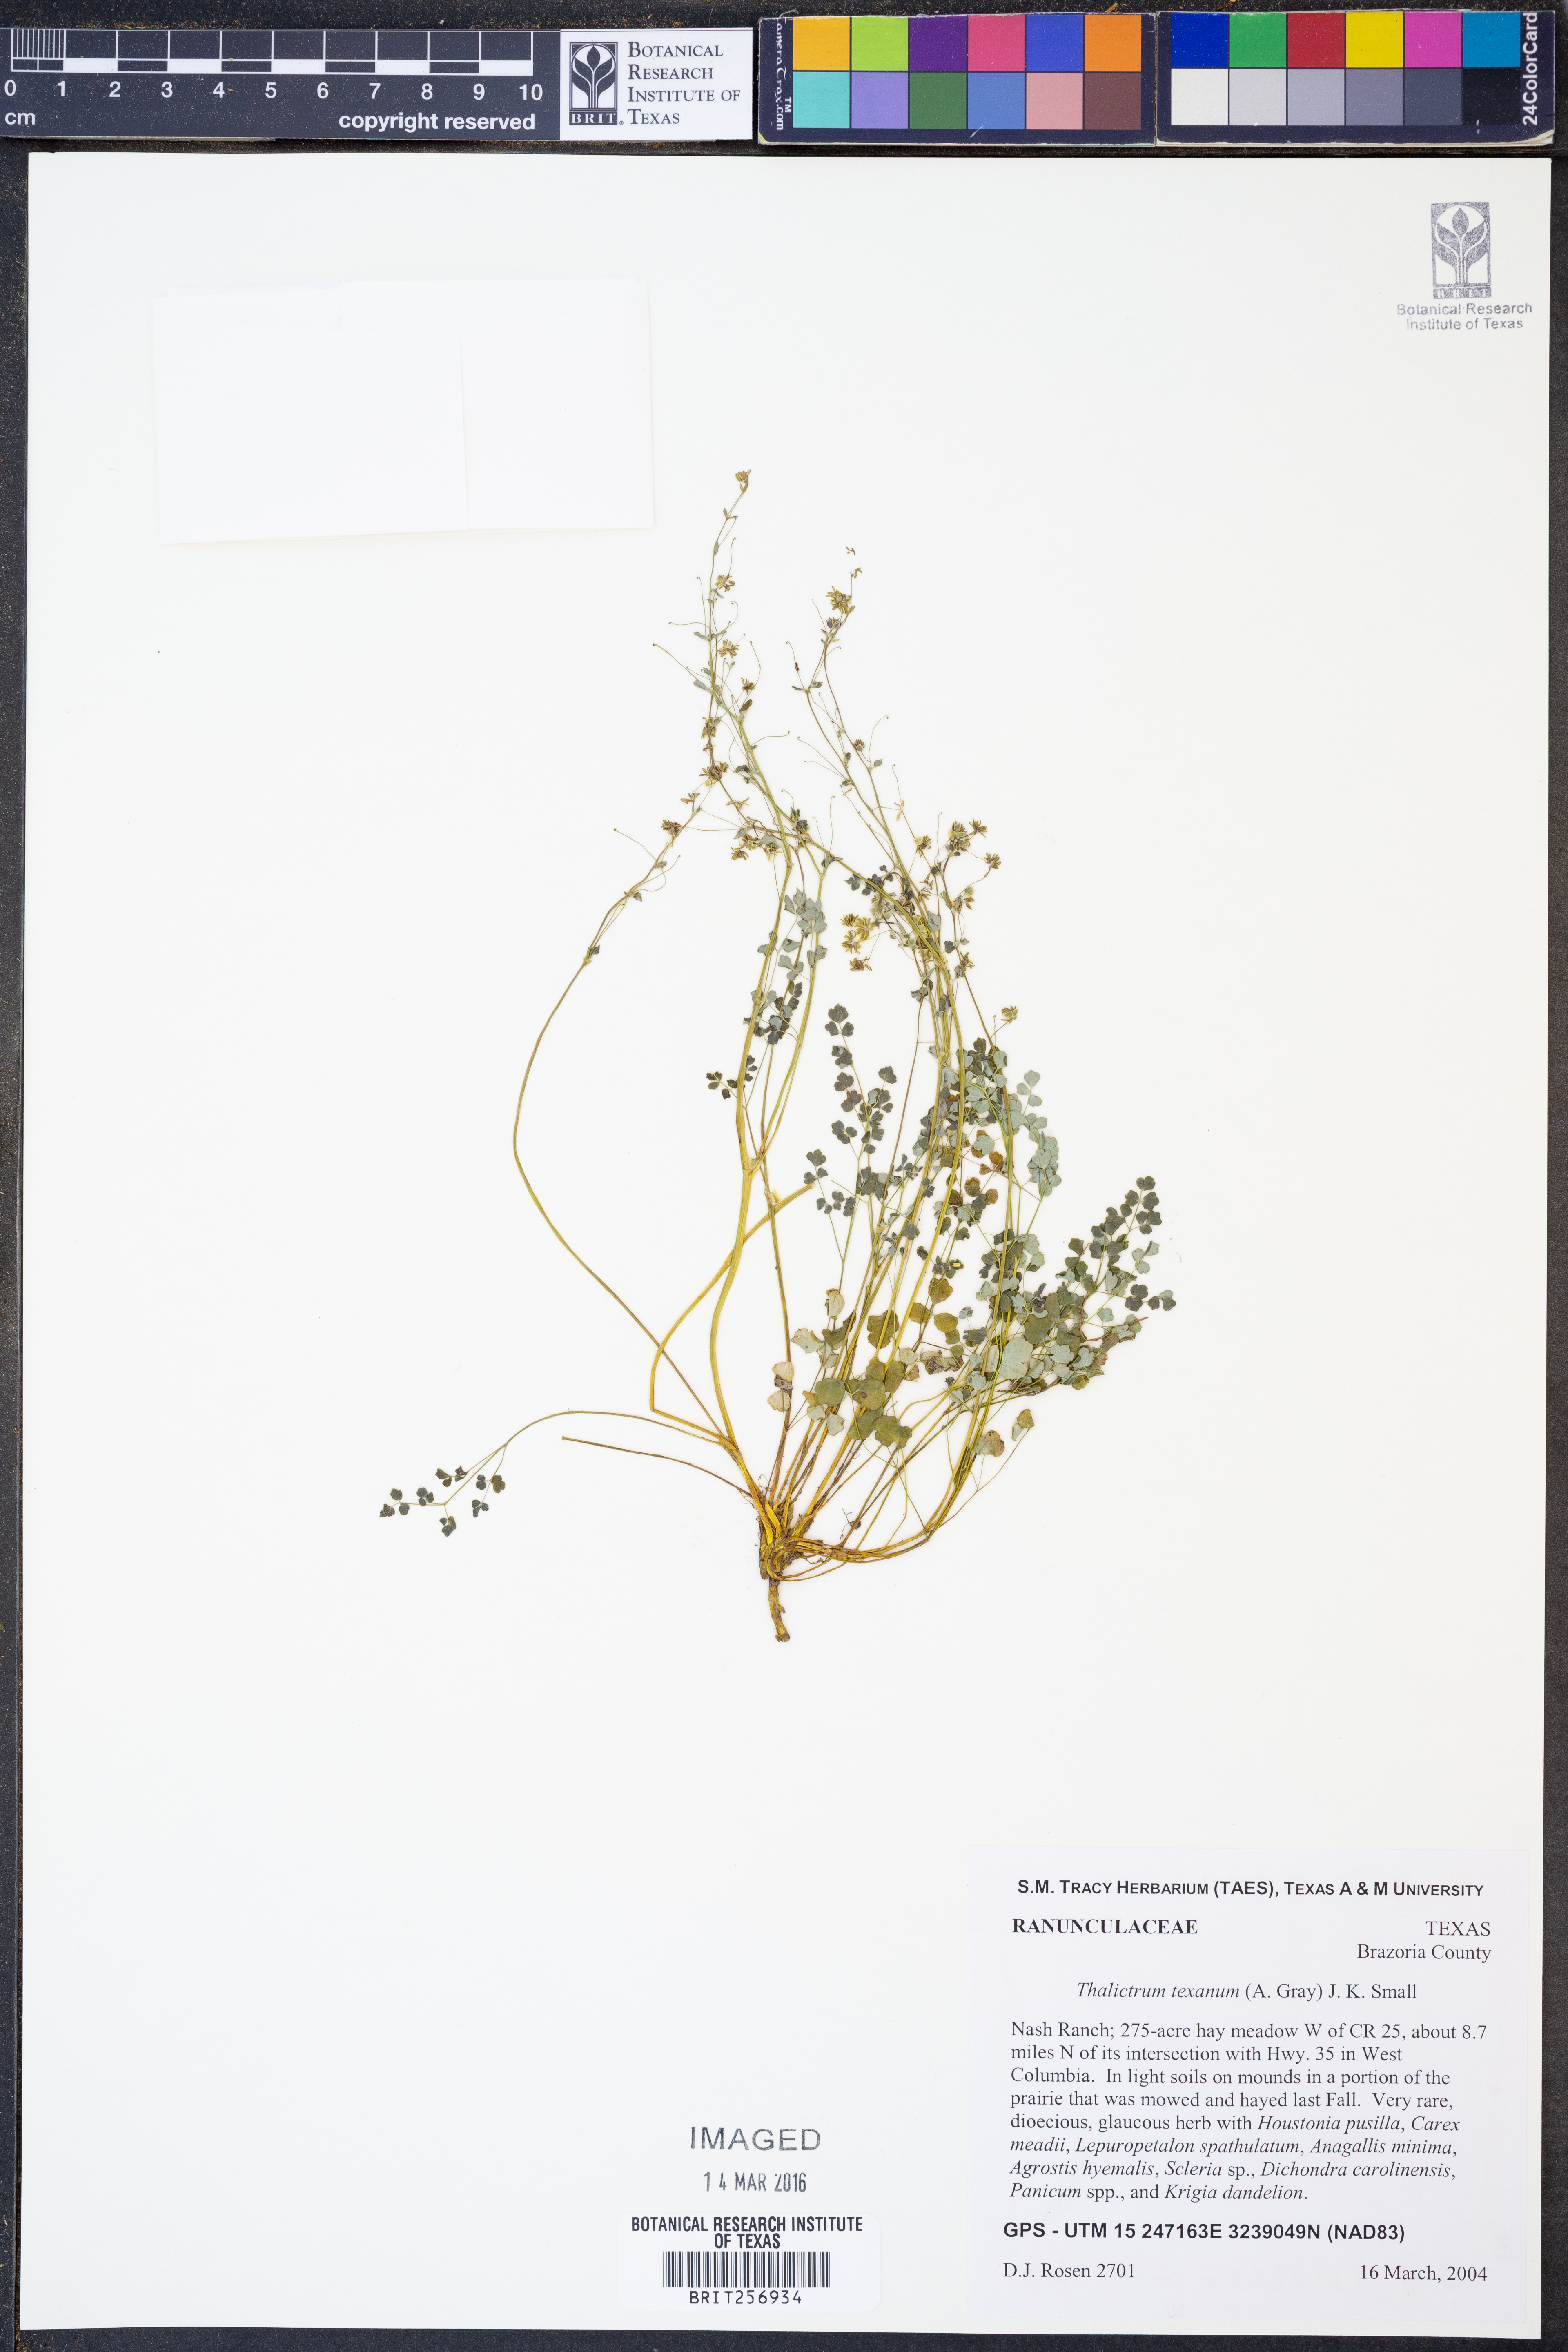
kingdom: Plantae
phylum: Tracheophyta
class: Magnoliopsida
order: Ranunculales
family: Ranunculaceae
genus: Thalictrum
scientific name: Thalictrum texanum
